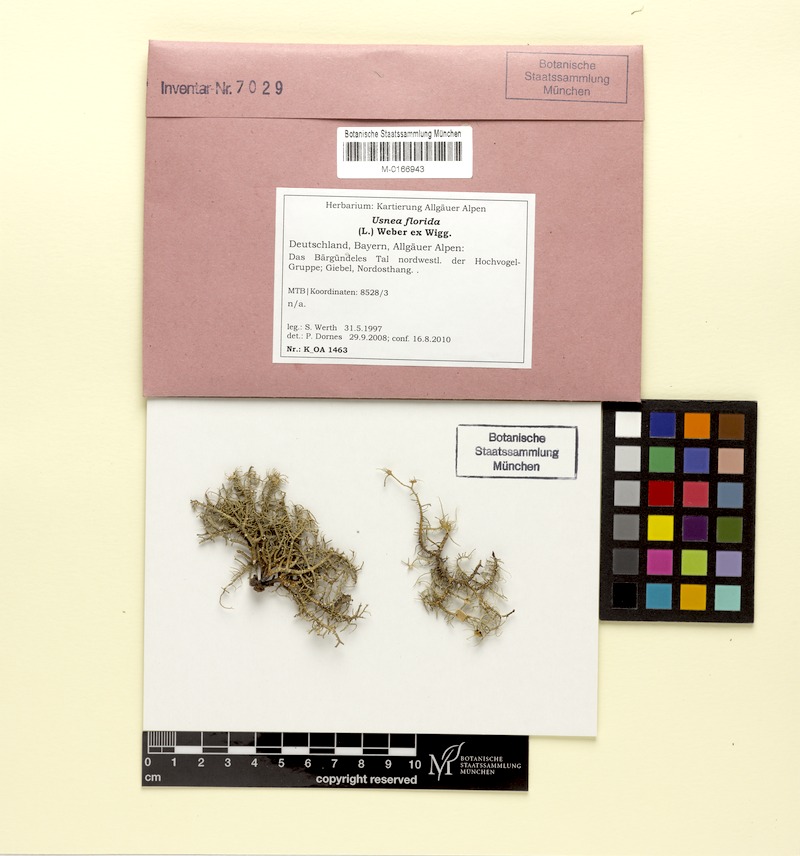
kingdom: Fungi
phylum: Ascomycota
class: Lecanoromycetes
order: Lecanorales
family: Parmeliaceae
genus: Usnea
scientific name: Usnea florida
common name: Witches' whiskers lichen
